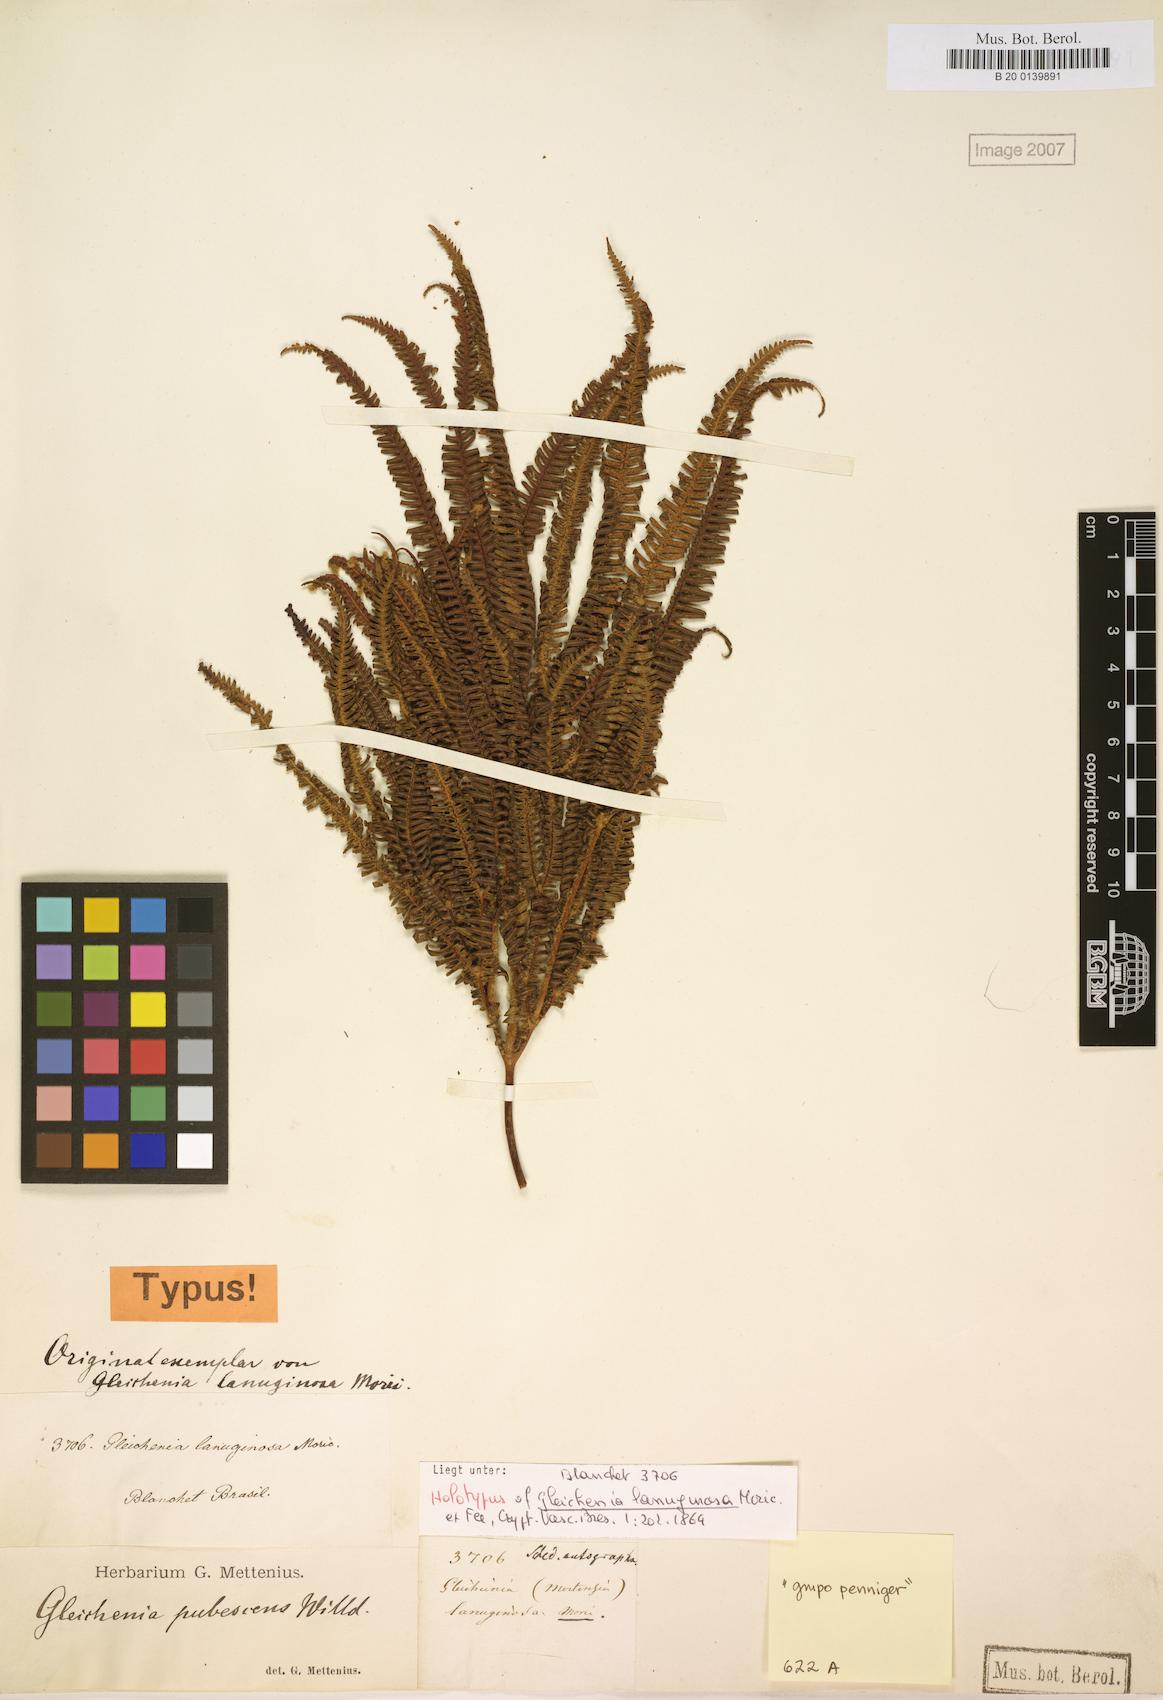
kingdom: Plantae
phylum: Tracheophyta
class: Polypodiopsida
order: Gleicheniales
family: Gleicheniaceae
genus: Sticherus
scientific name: Sticherus lanuginosus
